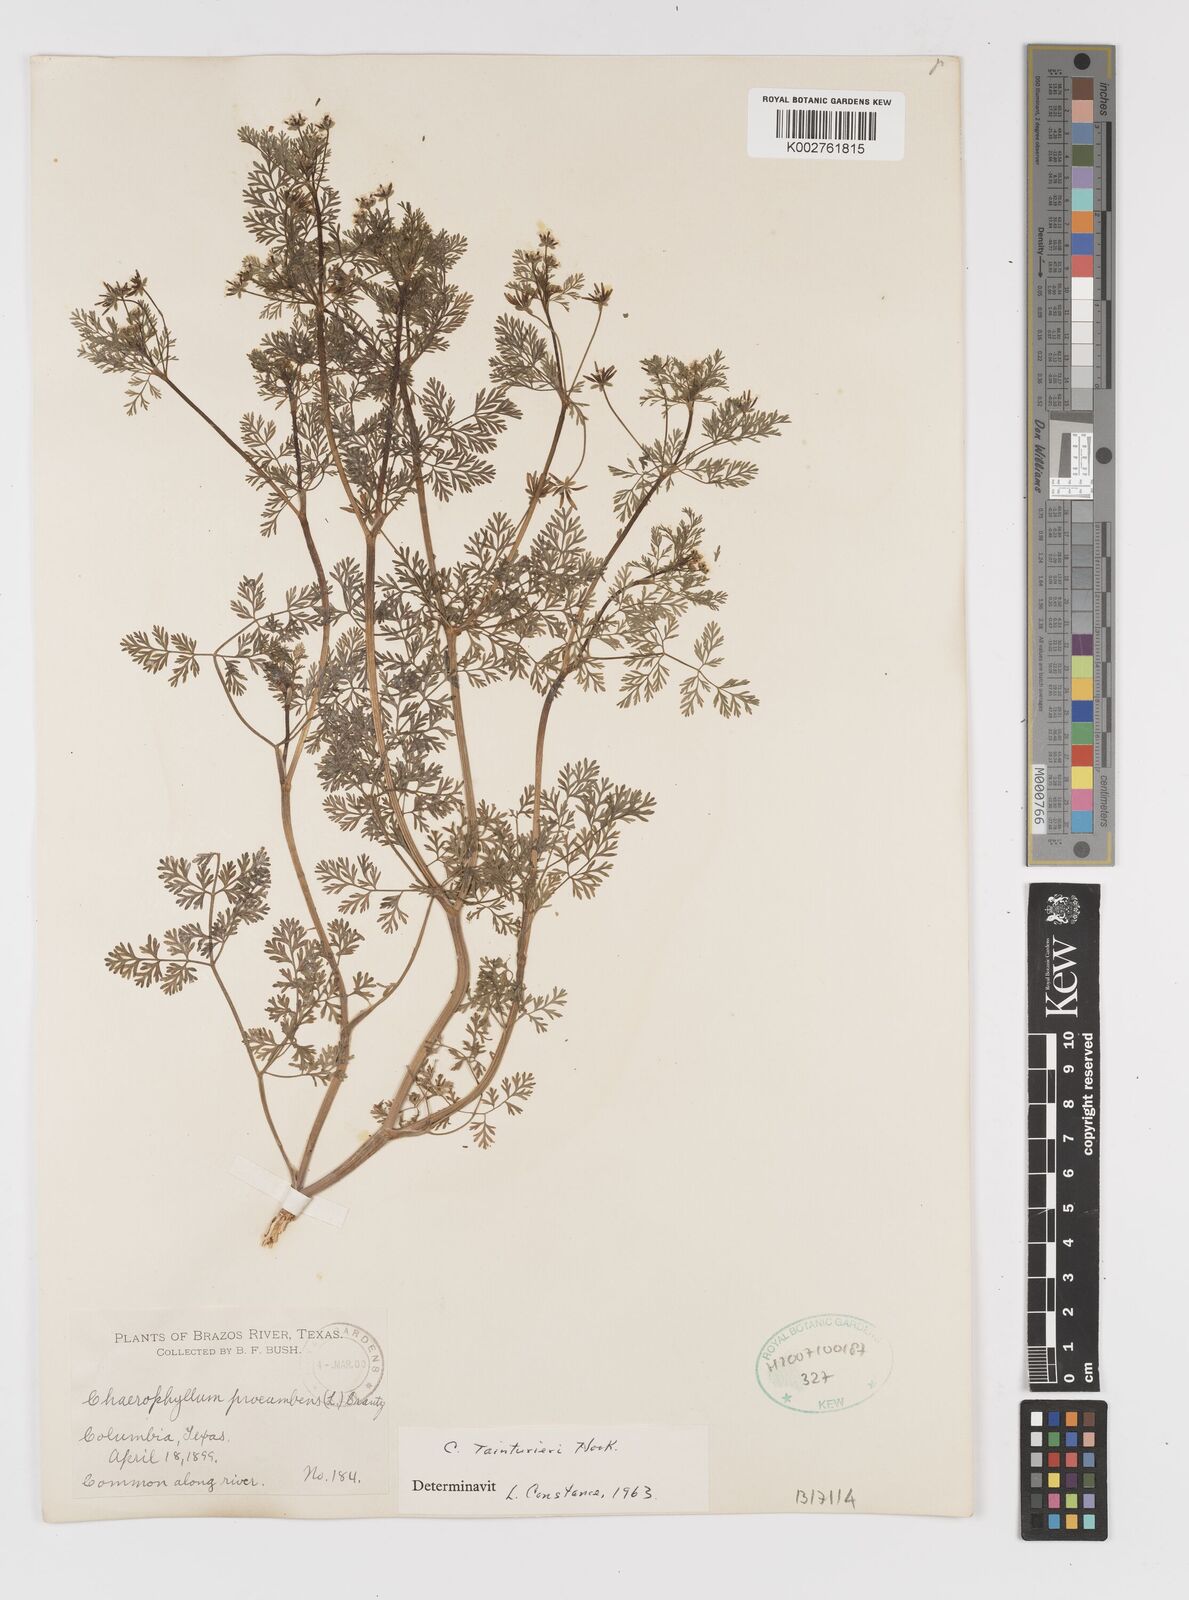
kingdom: Plantae
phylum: Tracheophyta
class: Magnoliopsida
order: Apiales
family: Apiaceae
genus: Chaerophyllum
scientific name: Chaerophyllum tainturieri
